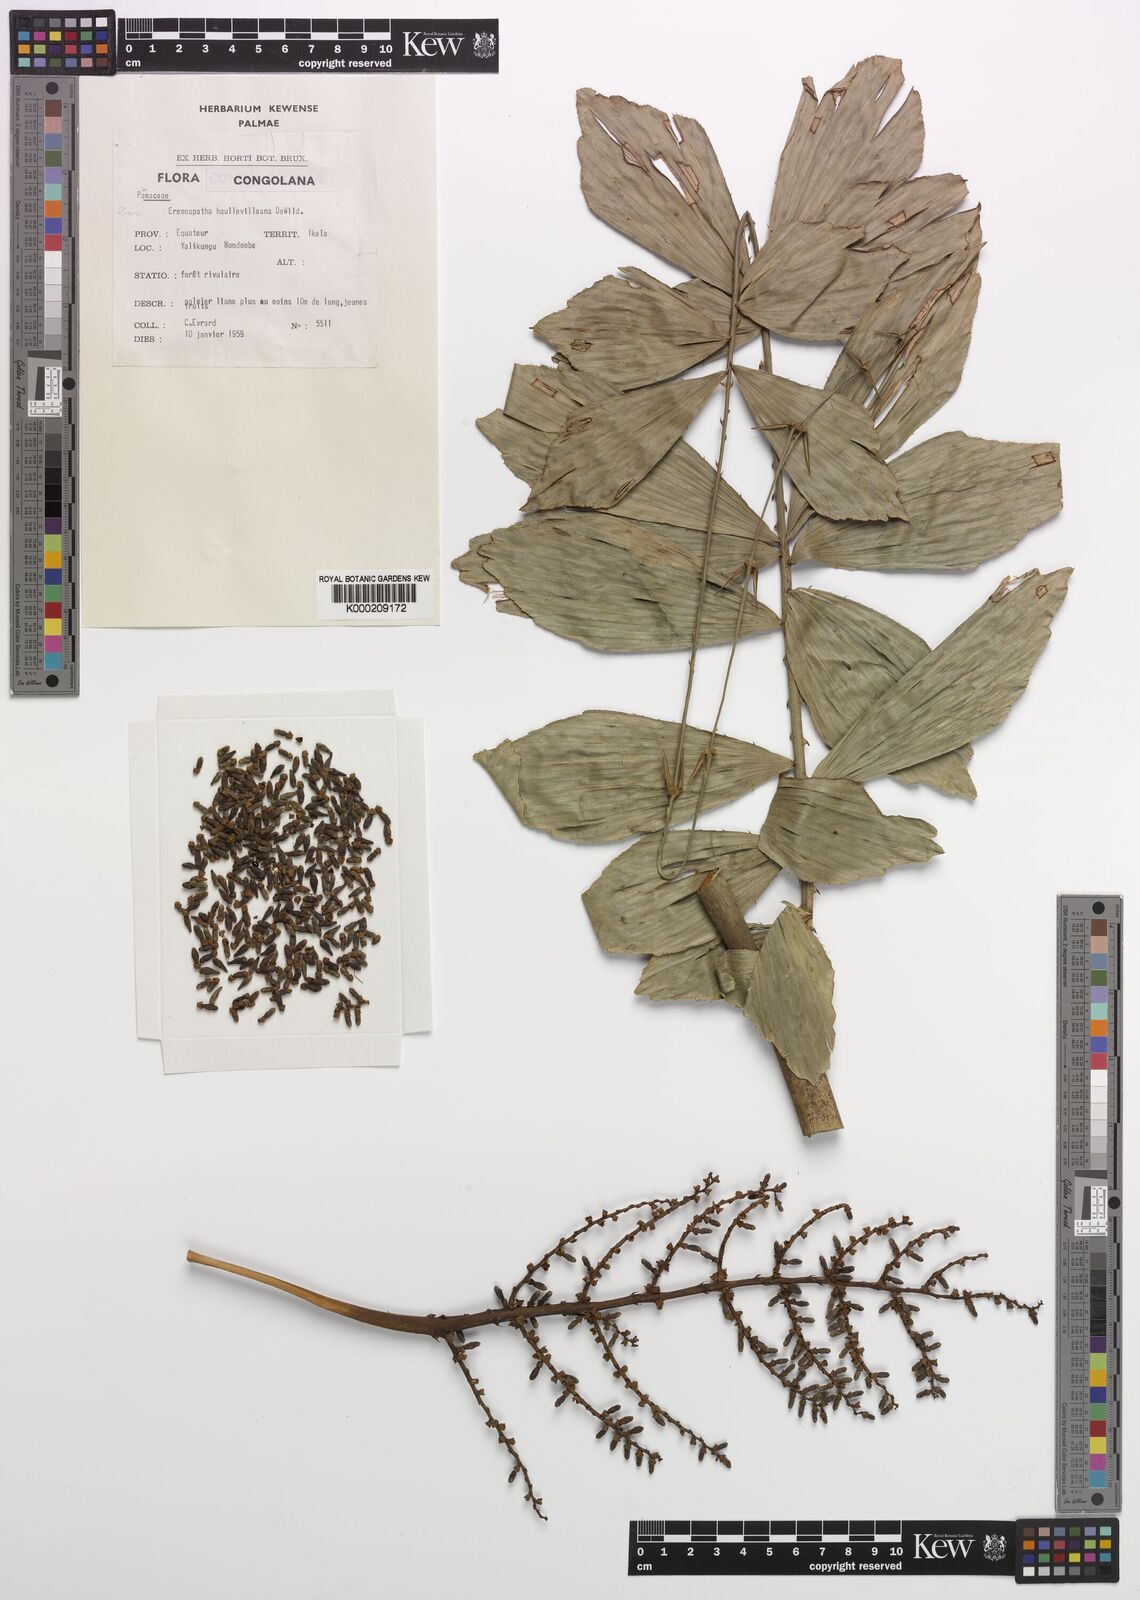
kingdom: Plantae
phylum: Tracheophyta
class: Liliopsida
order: Arecales
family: Arecaceae
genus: Eremospatha
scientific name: Eremospatha haullevilleana
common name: Rattan
